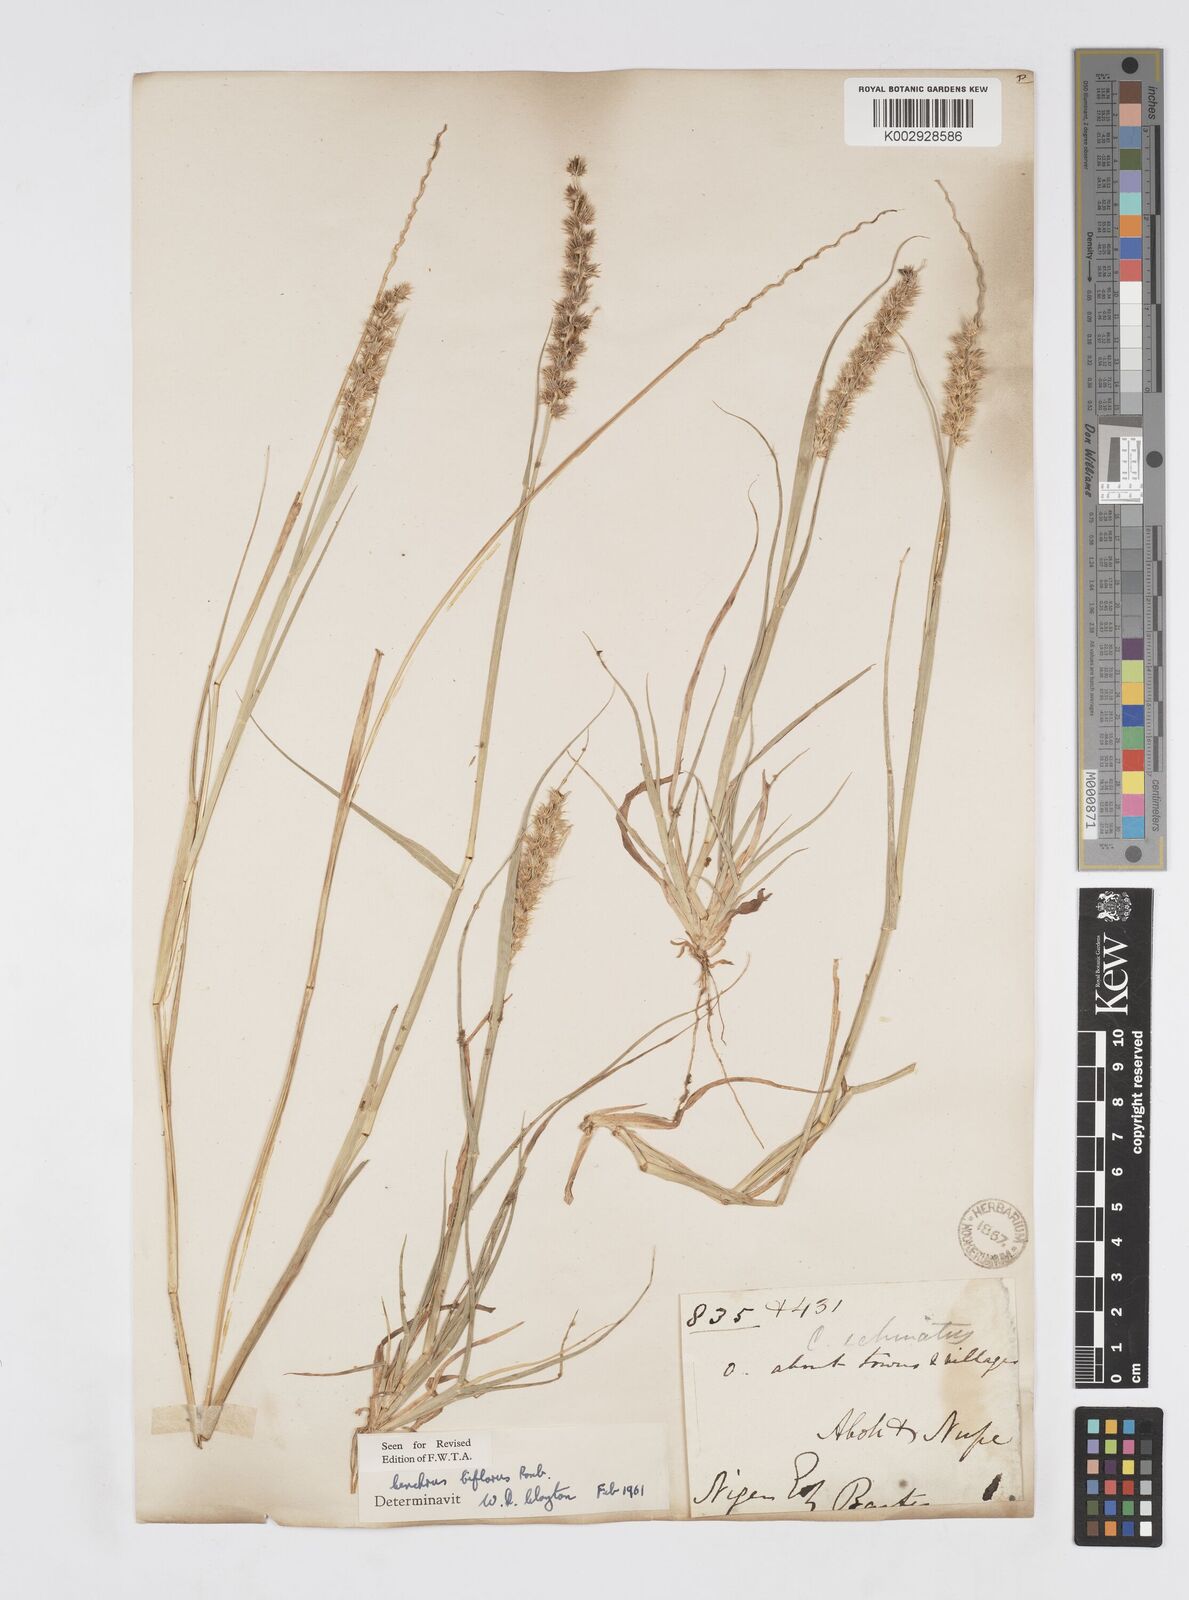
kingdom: Plantae
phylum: Tracheophyta
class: Liliopsida
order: Poales
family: Poaceae
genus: Cenchrus
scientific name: Cenchrus biflorus
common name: Indian sandbur
